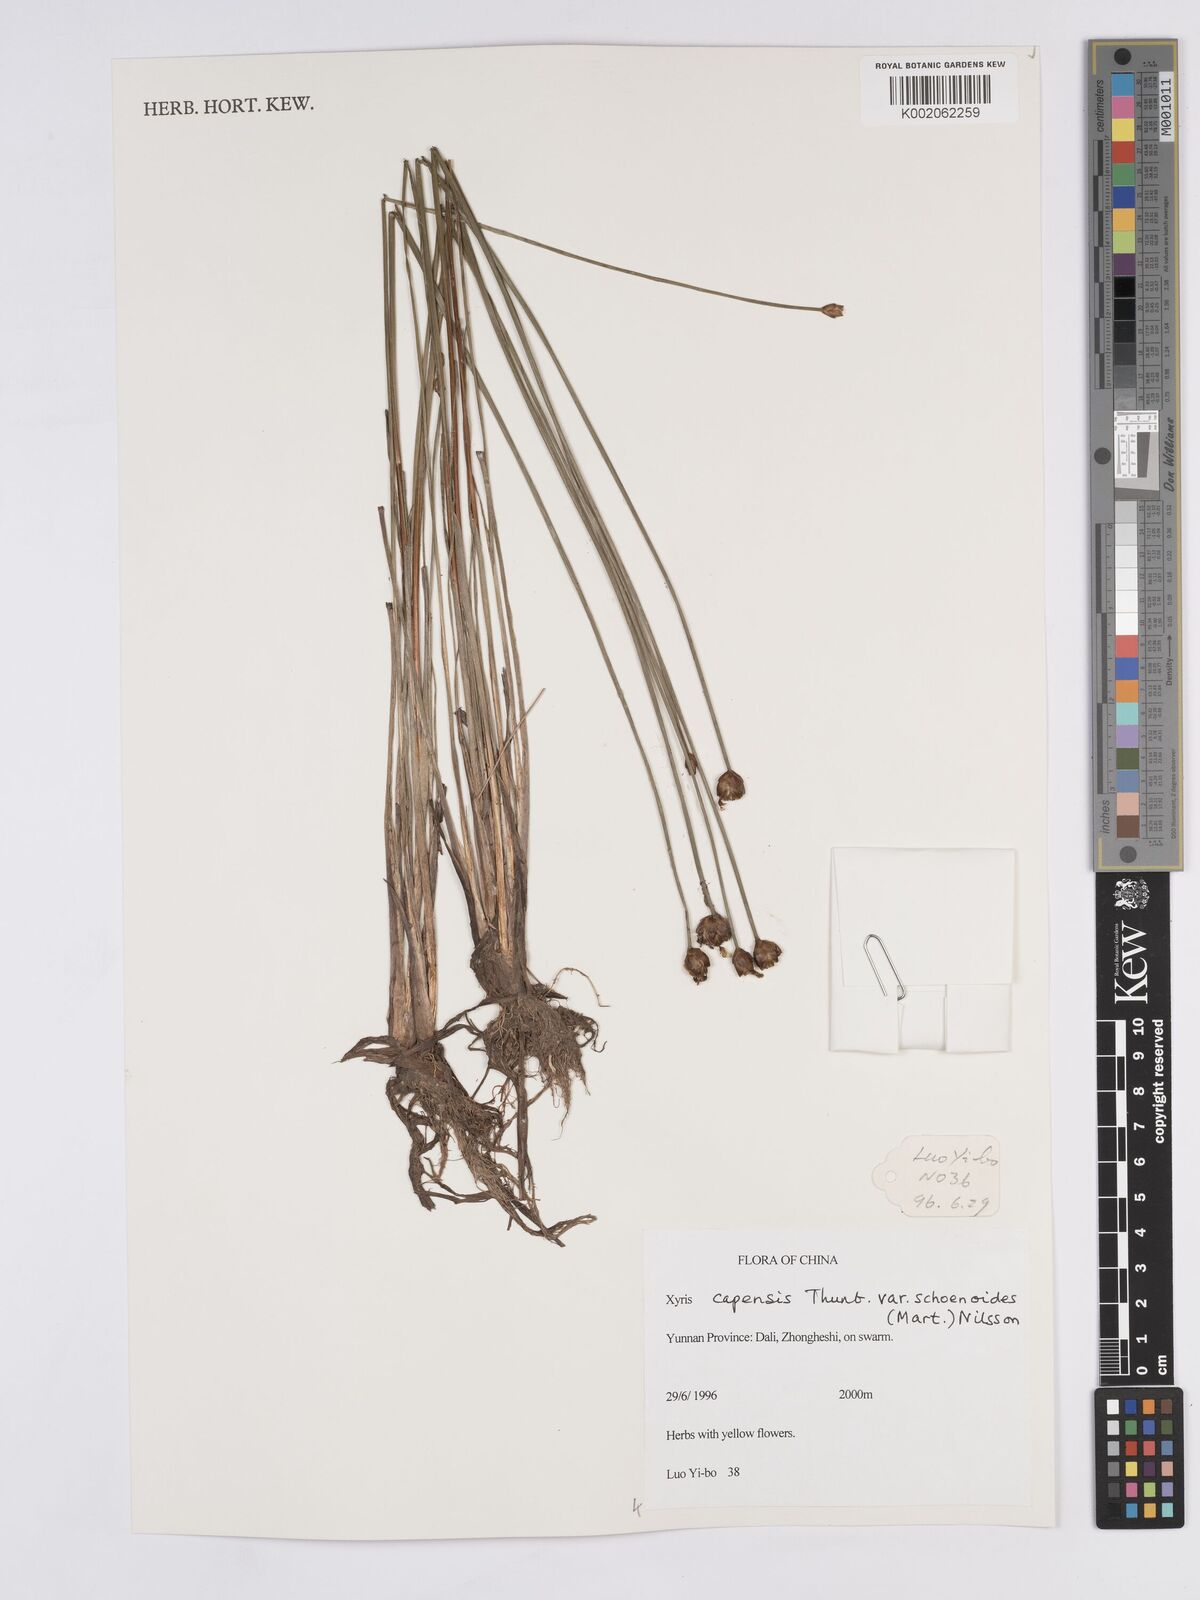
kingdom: Plantae
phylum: Tracheophyta
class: Liliopsida
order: Poales
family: Xyridaceae
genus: Xyris
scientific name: Xyris capensis
